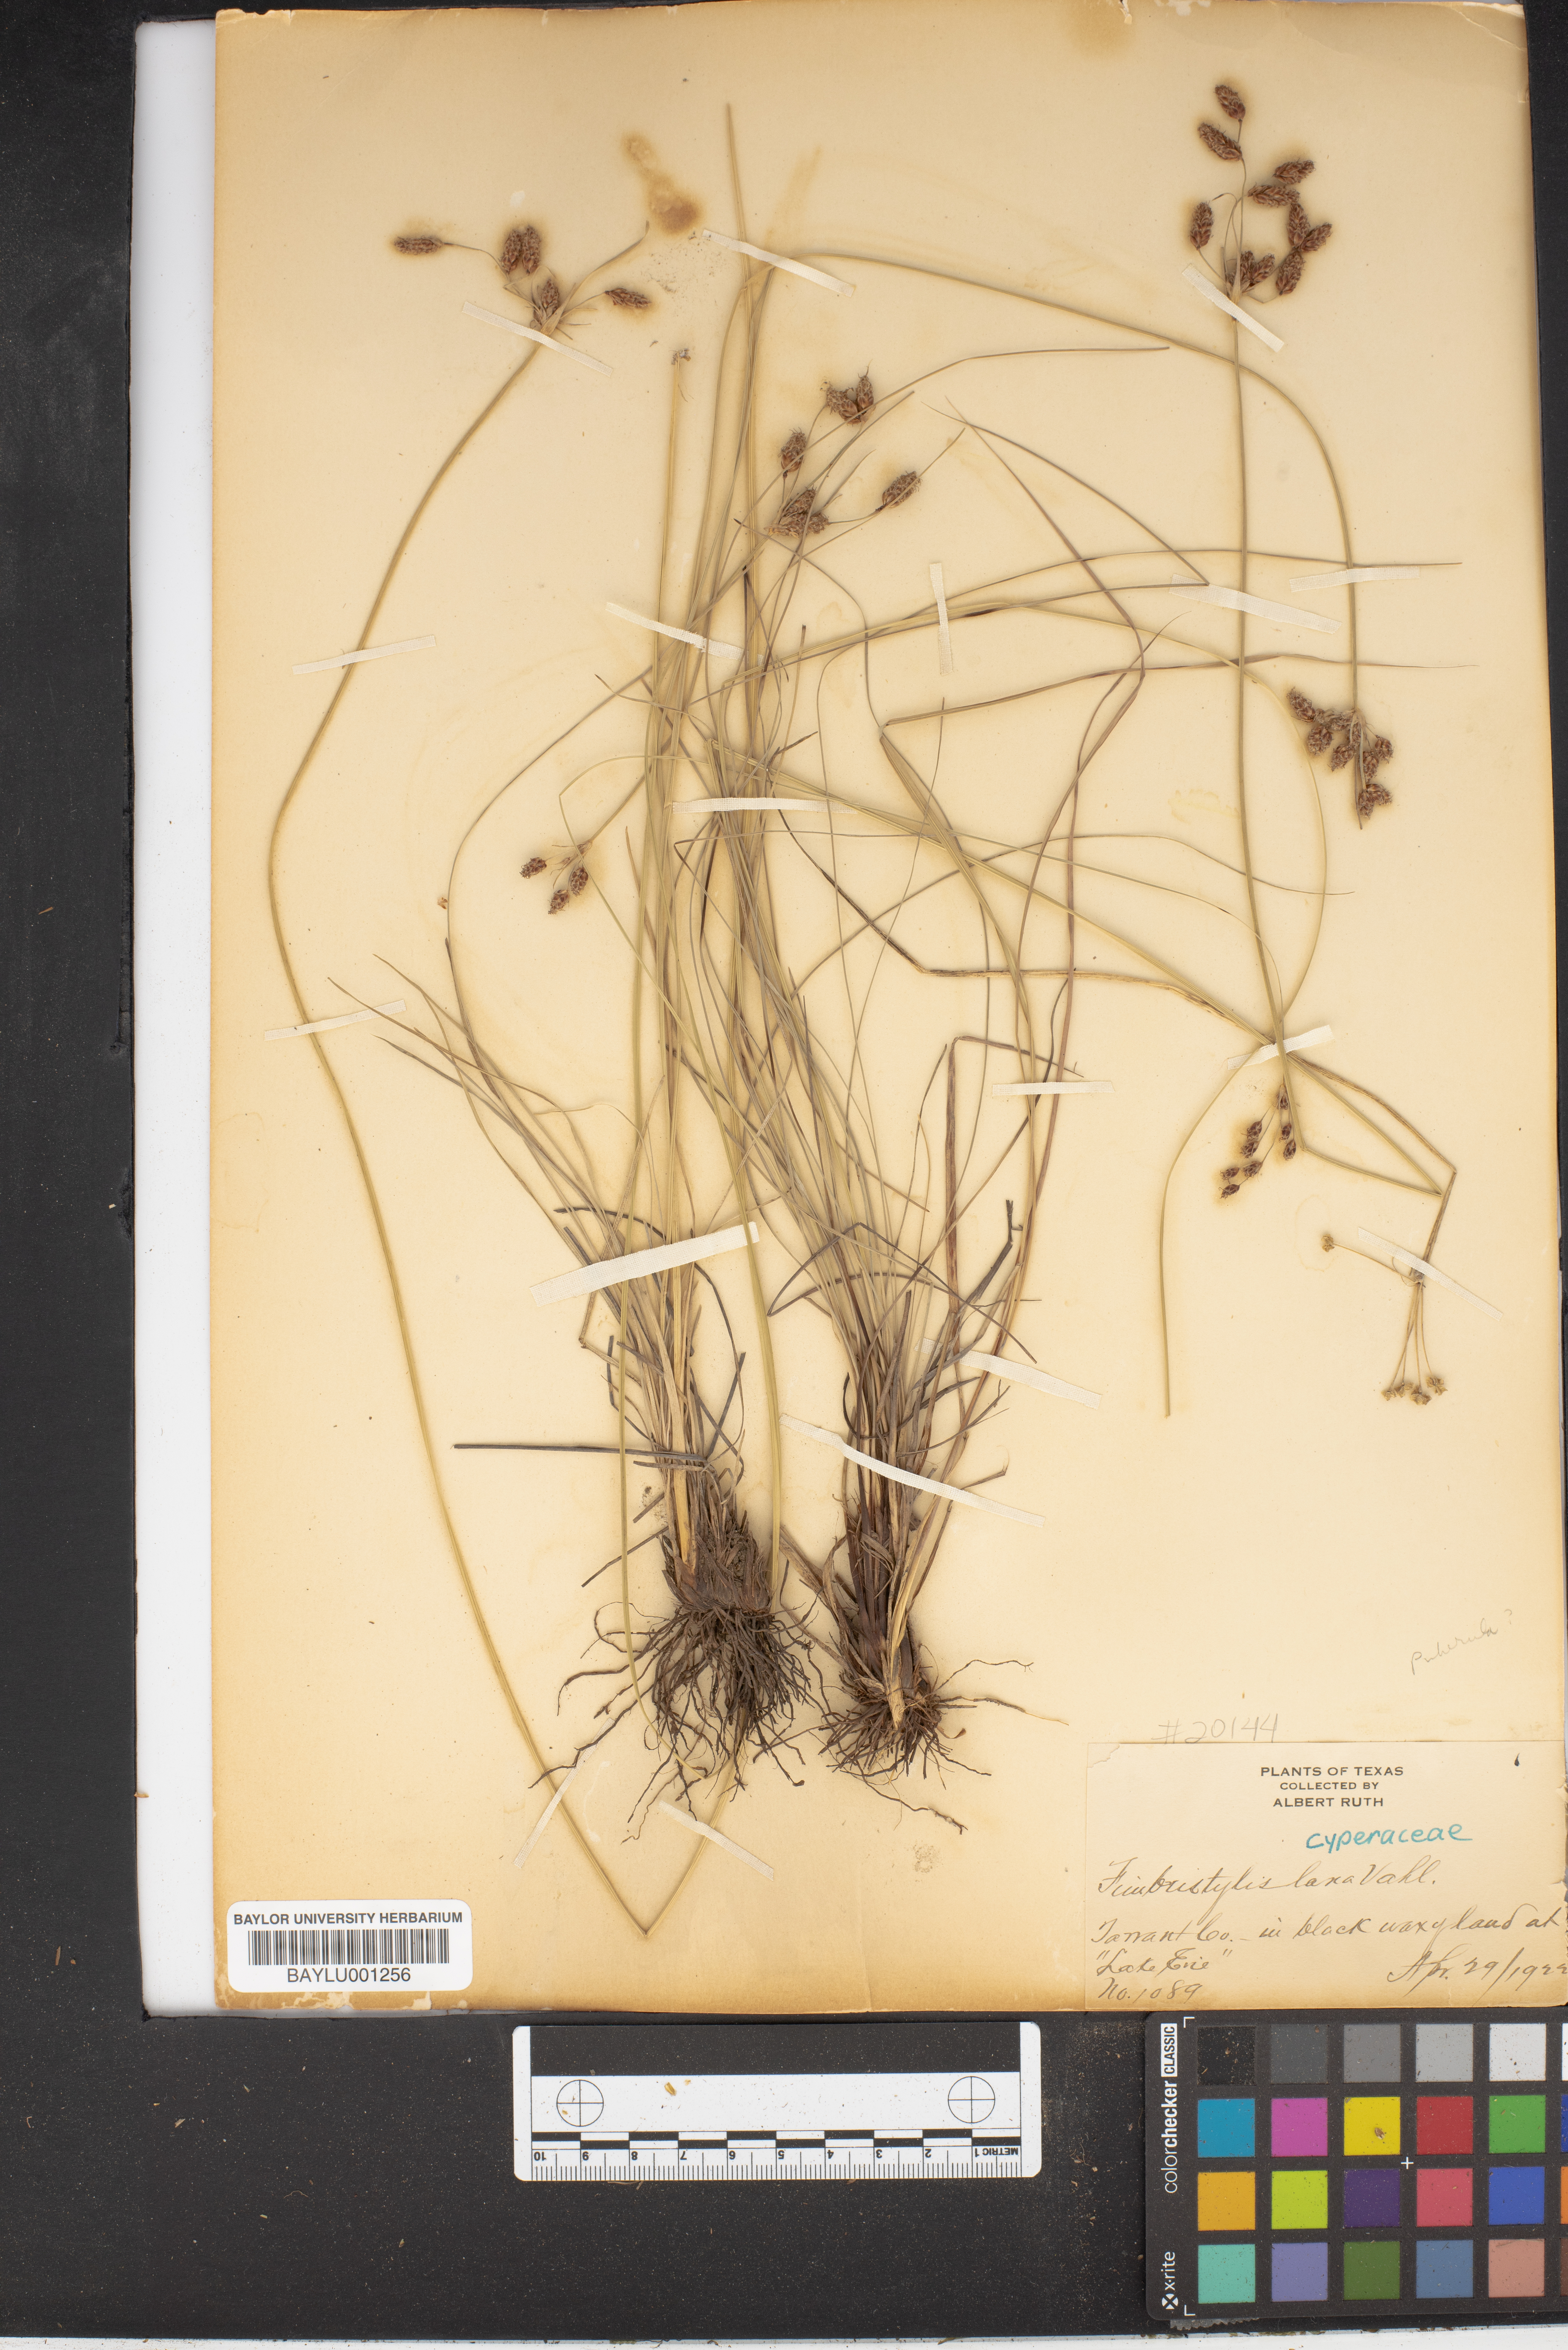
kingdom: Plantae
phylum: Tracheophyta
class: Liliopsida
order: Poales
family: Cyperaceae
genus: Fimbristylis
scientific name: Fimbristylis dichotoma
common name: Forked fimbry
